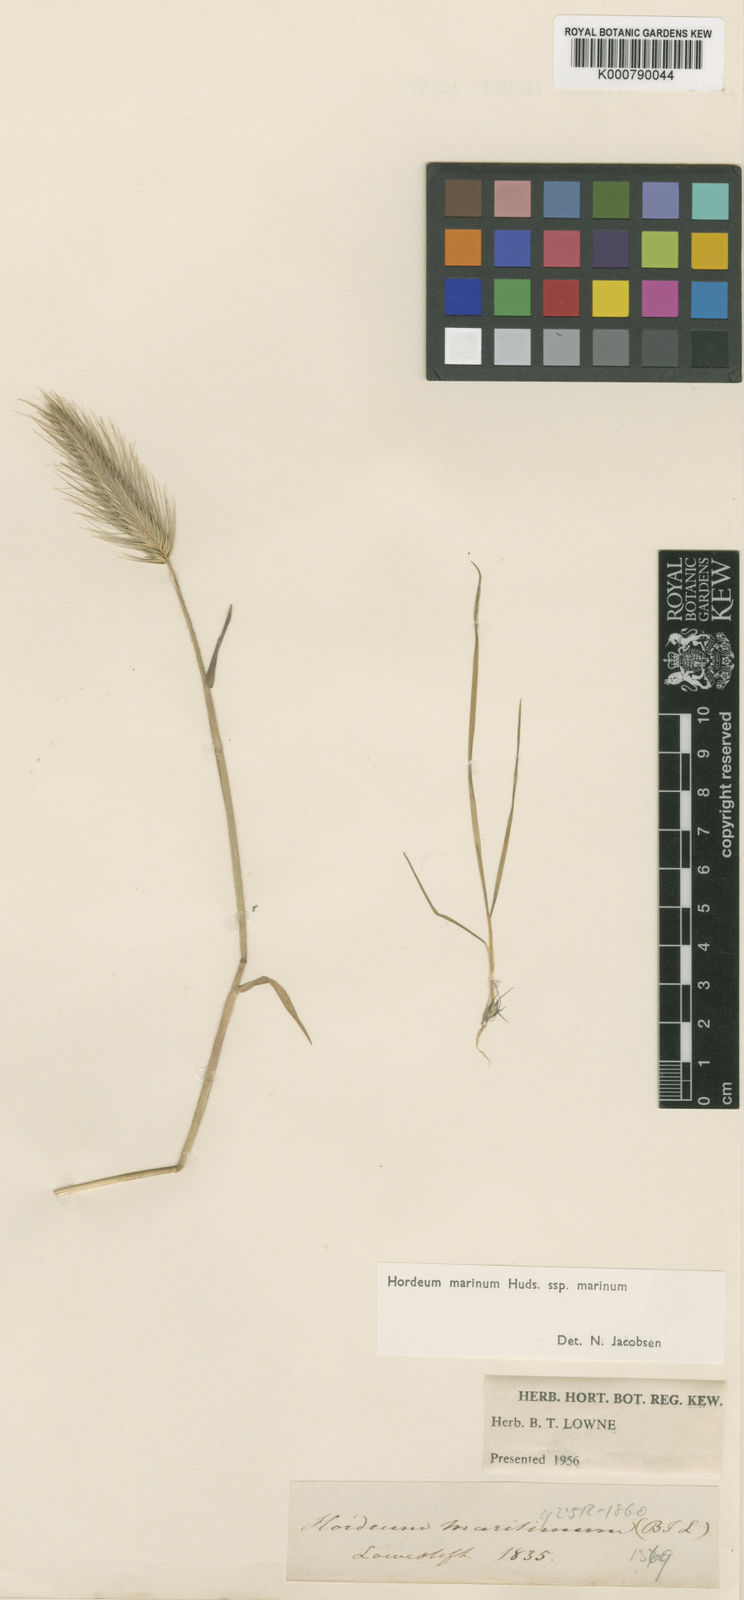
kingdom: Plantae
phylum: Tracheophyta
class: Liliopsida
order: Poales
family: Poaceae
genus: Hordeum
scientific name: Hordeum marinum
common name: Sea barley
